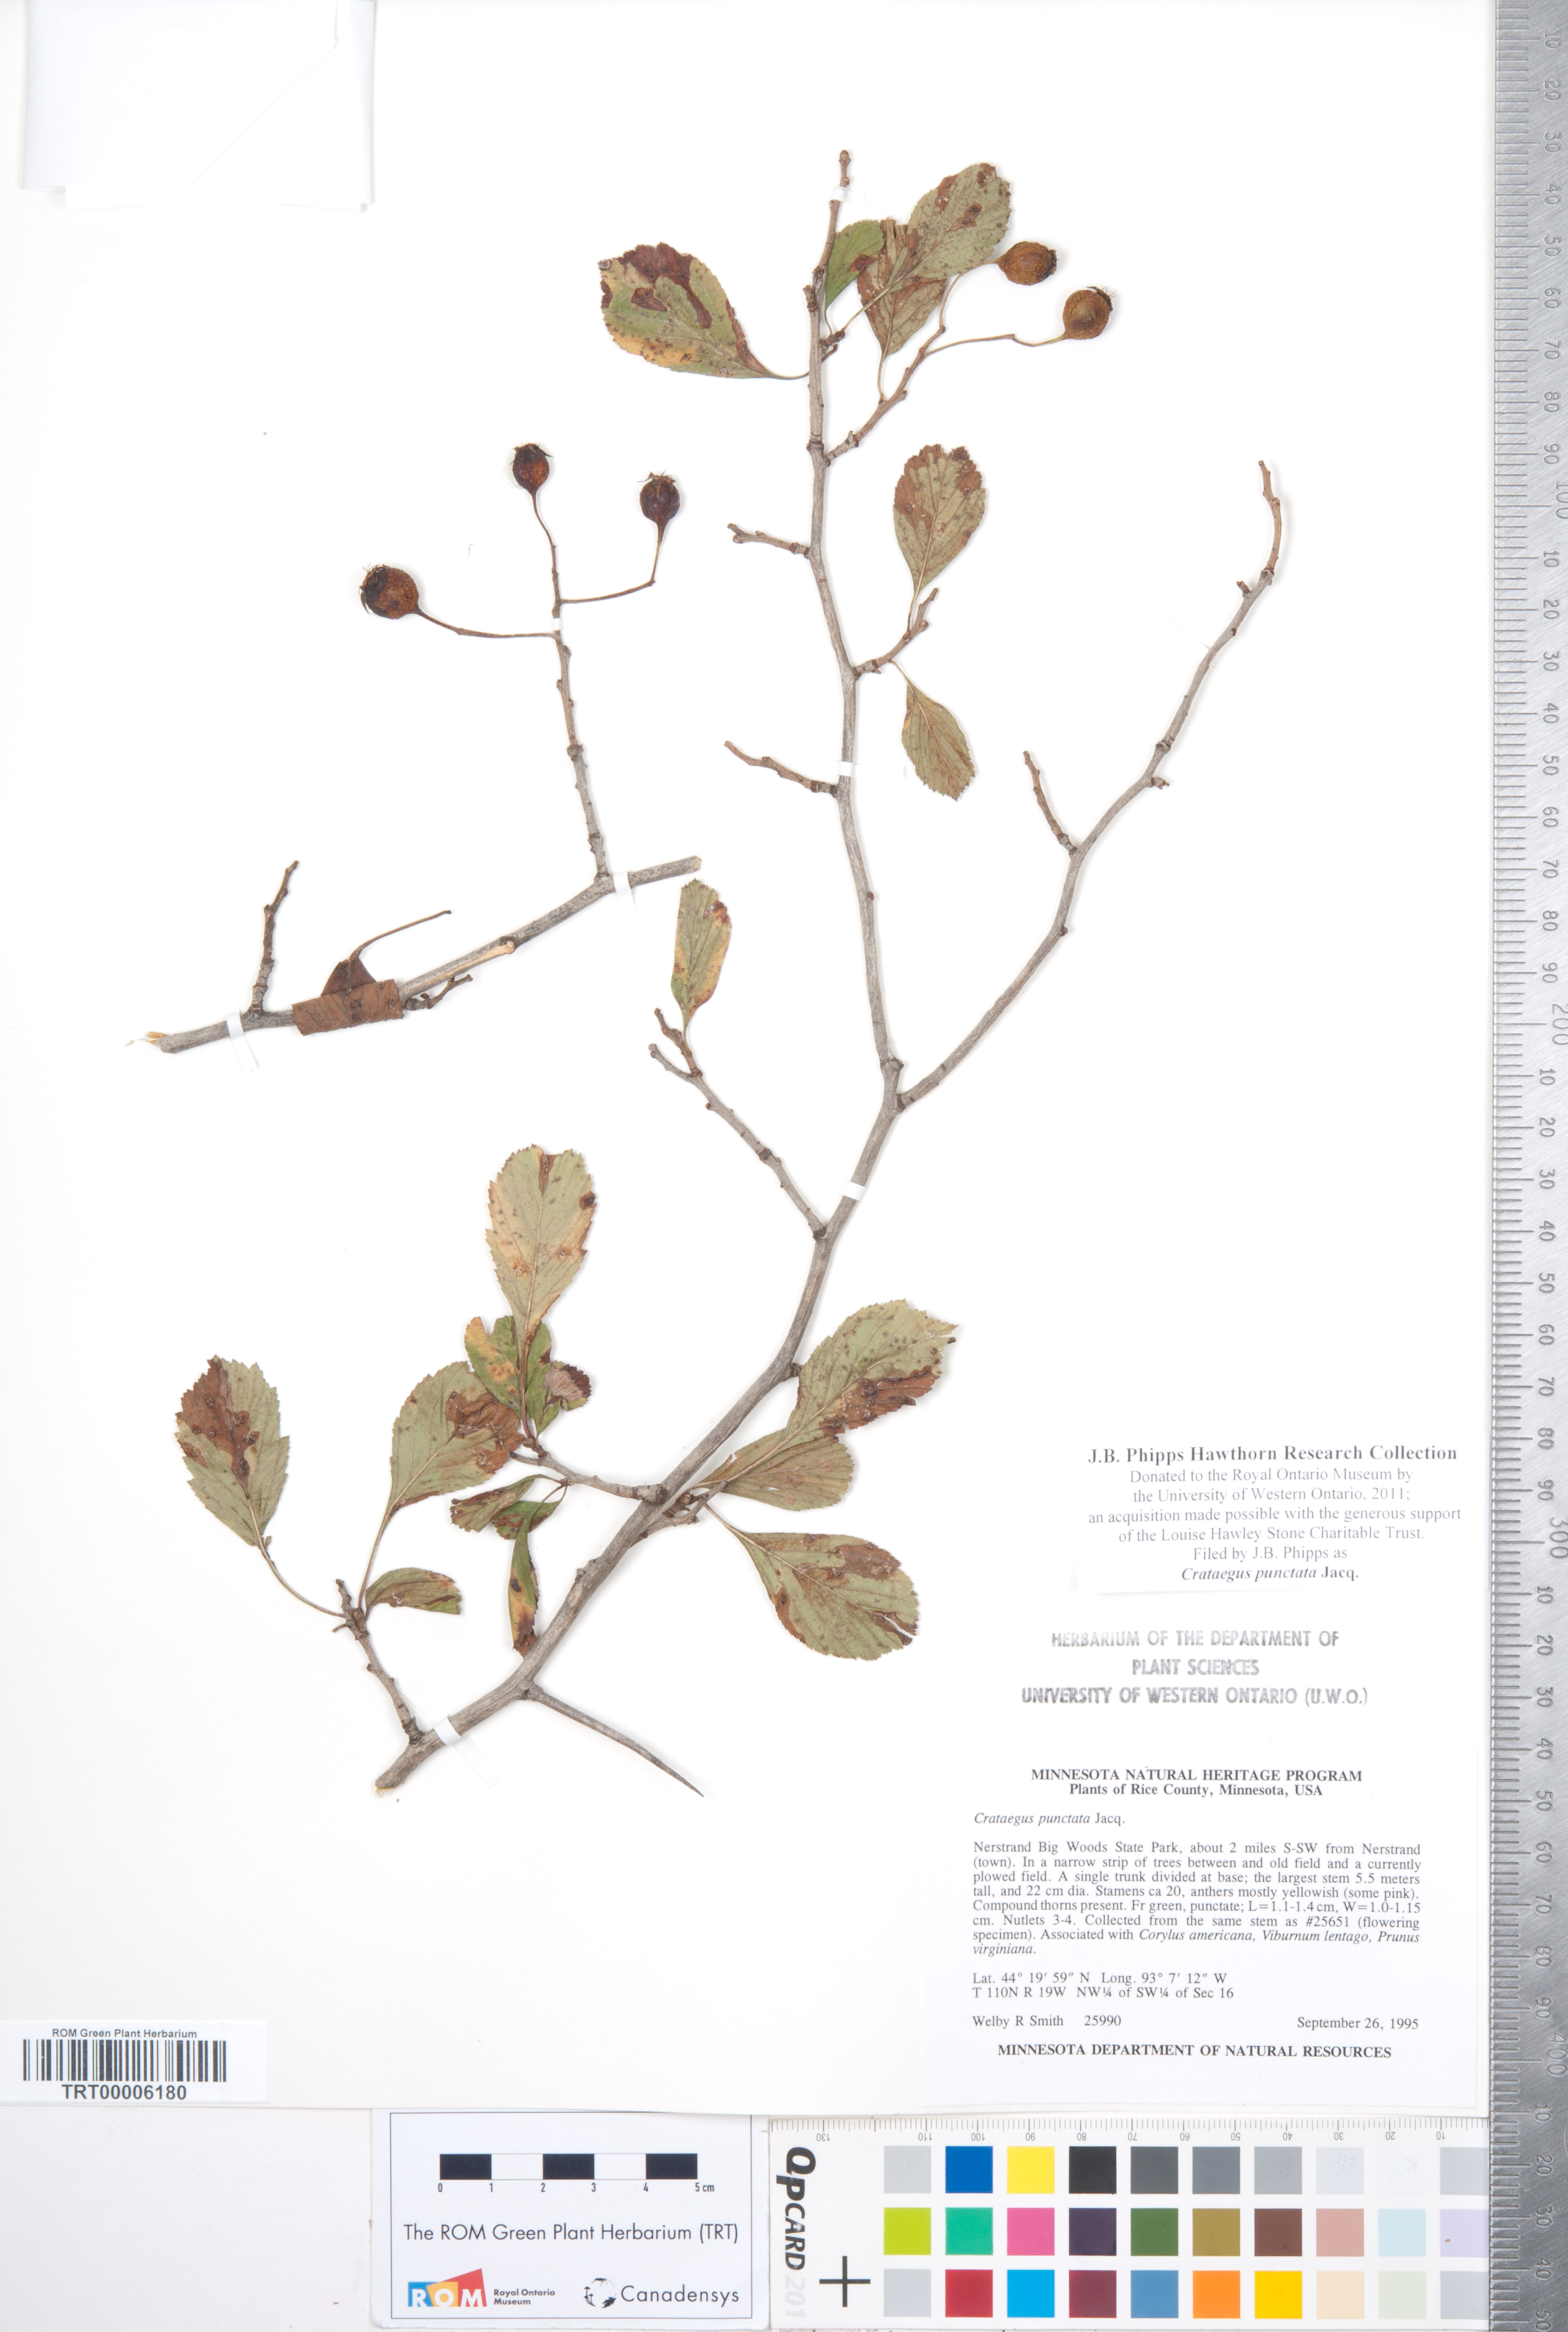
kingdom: Plantae
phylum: Tracheophyta
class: Magnoliopsida
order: Rosales
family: Rosaceae
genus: Crataegus
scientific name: Crataegus punctata
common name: Dotted hawthorn
